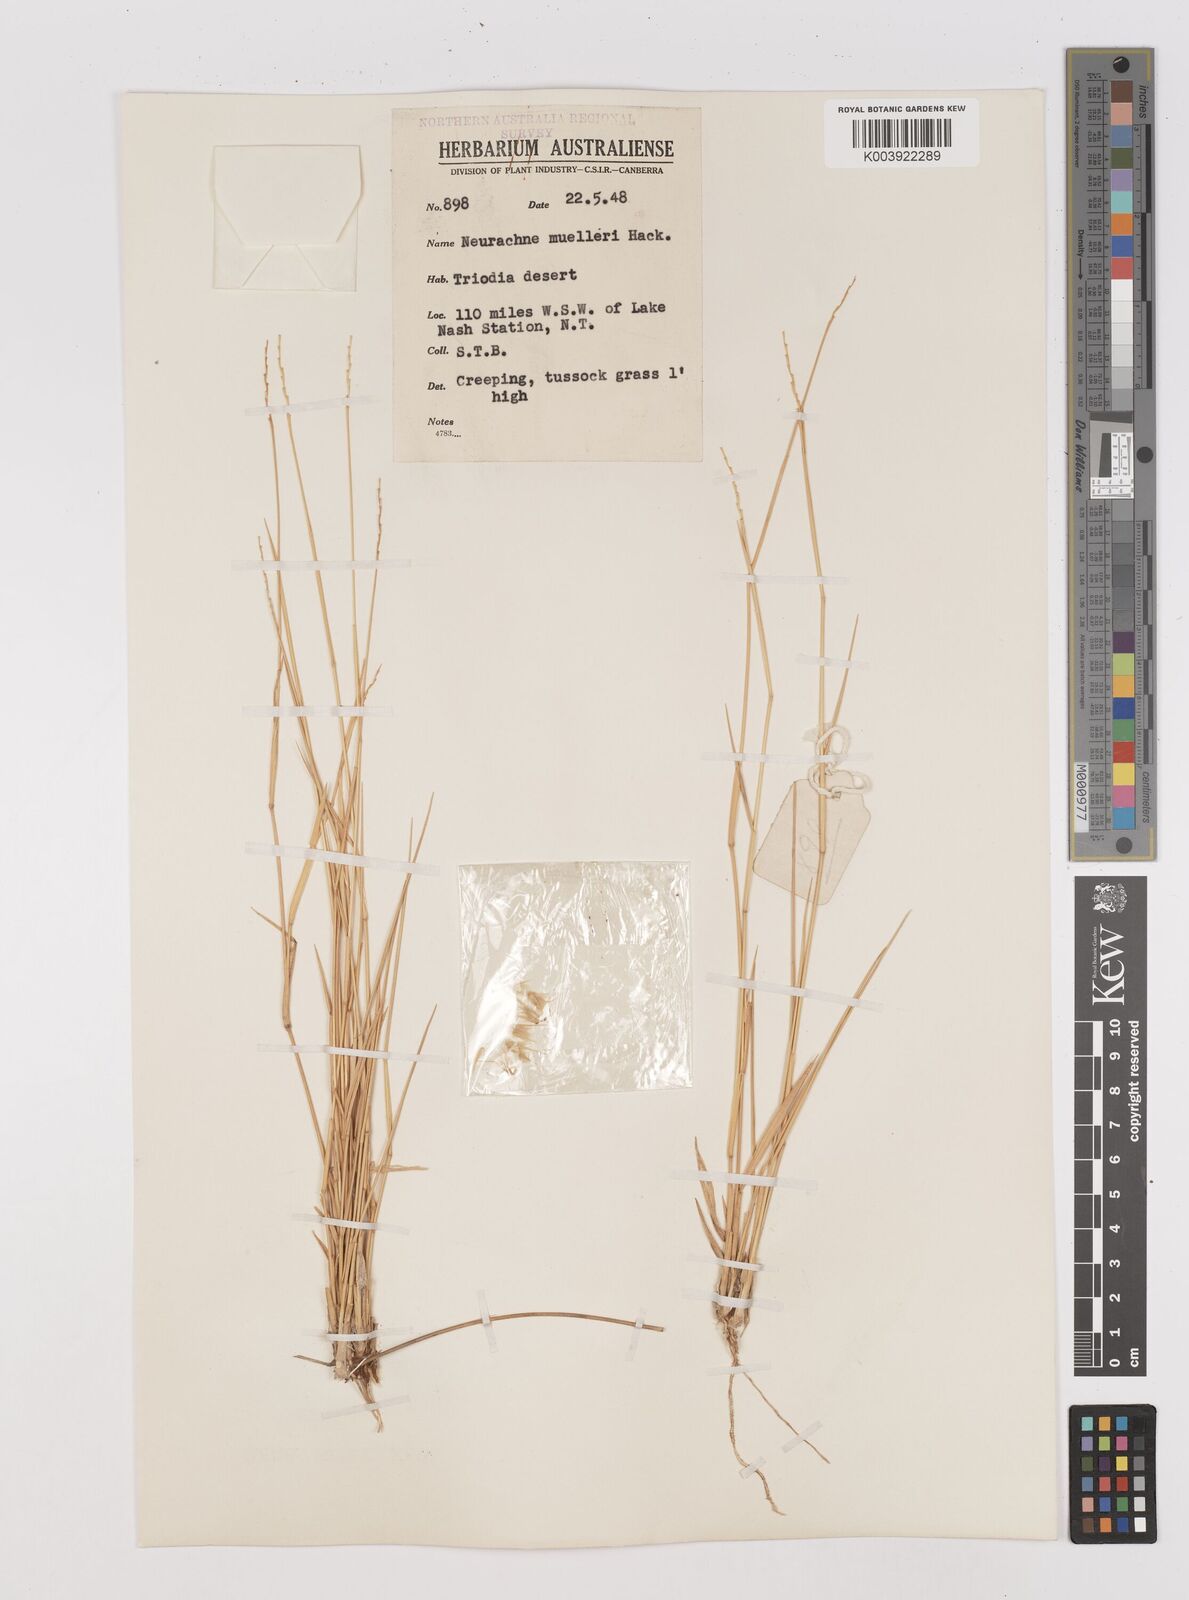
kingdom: Plantae
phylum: Tracheophyta
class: Liliopsida
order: Poales
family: Poaceae
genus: Neurachne
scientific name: Neurachne muelleri
